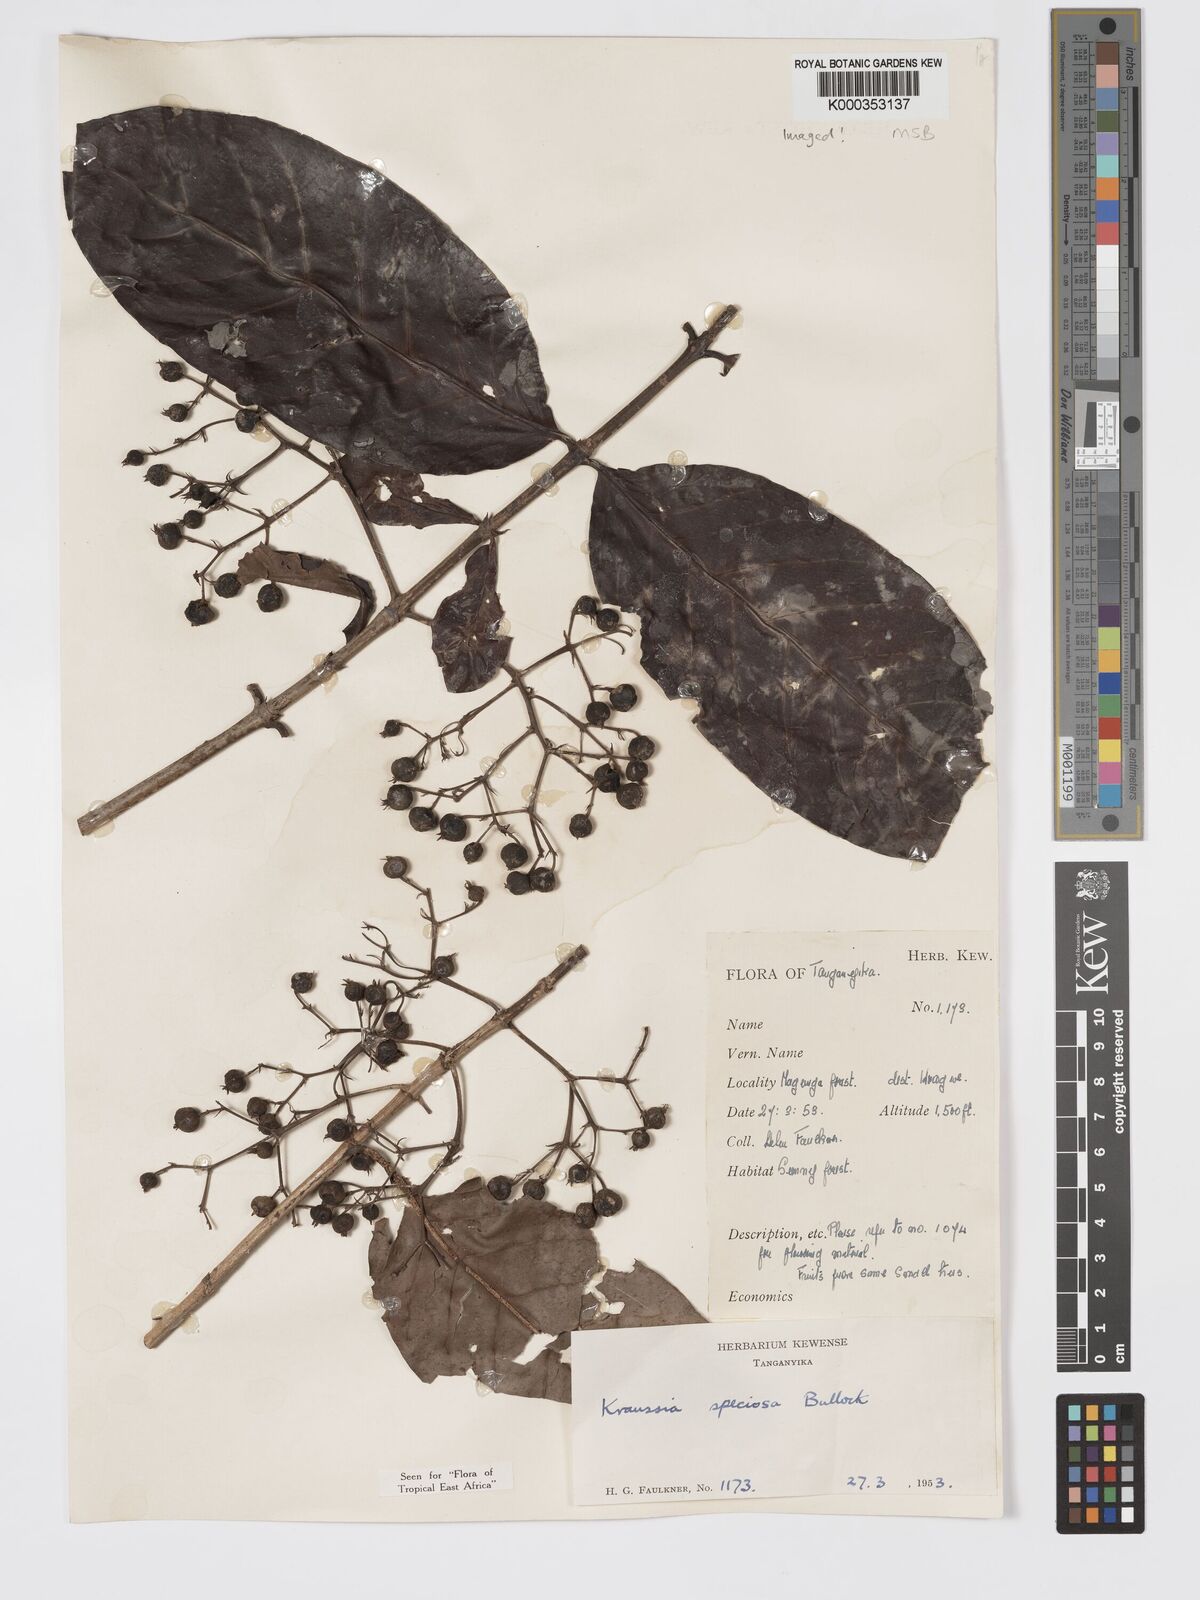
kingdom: Plantae
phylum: Tracheophyta
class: Magnoliopsida
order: Gentianales
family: Rubiaceae
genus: Kraussia
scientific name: Kraussia speciosa
